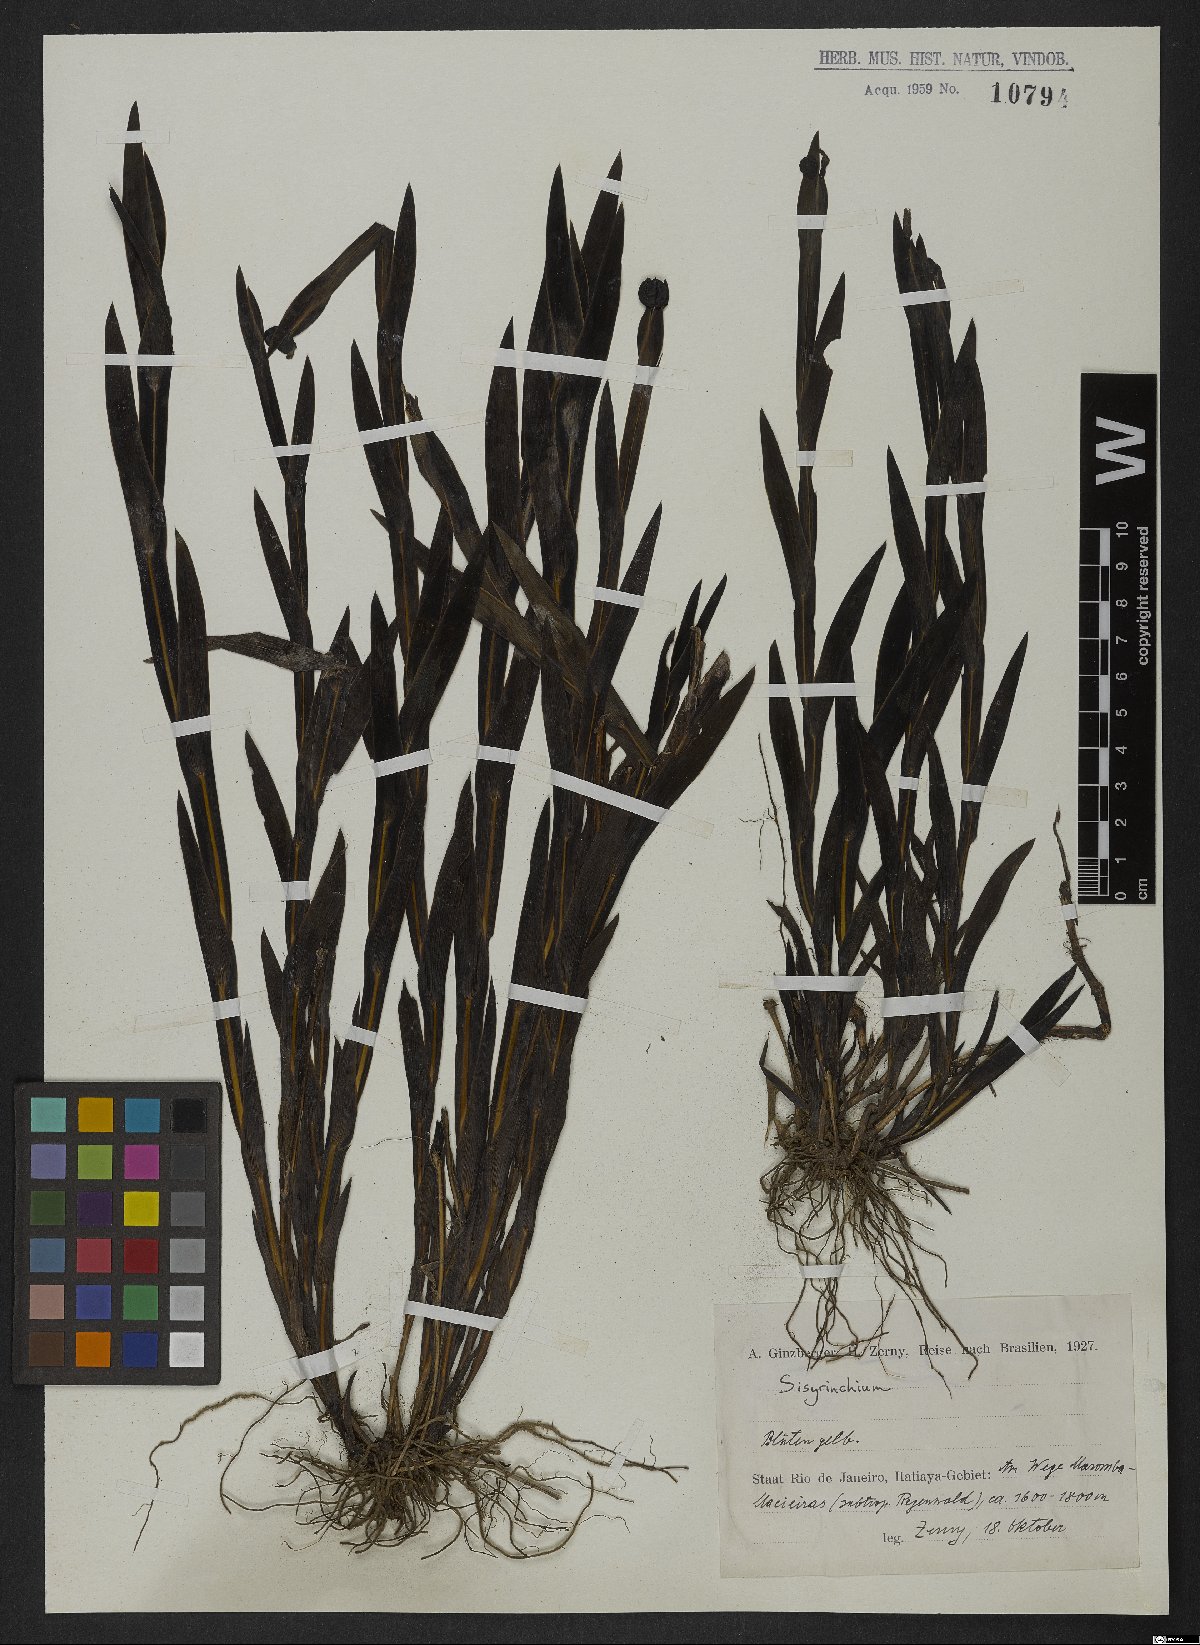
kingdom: Plantae
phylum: Tracheophyta
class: Liliopsida
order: Asparagales
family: Iridaceae
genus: Sisyrinchium
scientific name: Sisyrinchium wettsteinii
